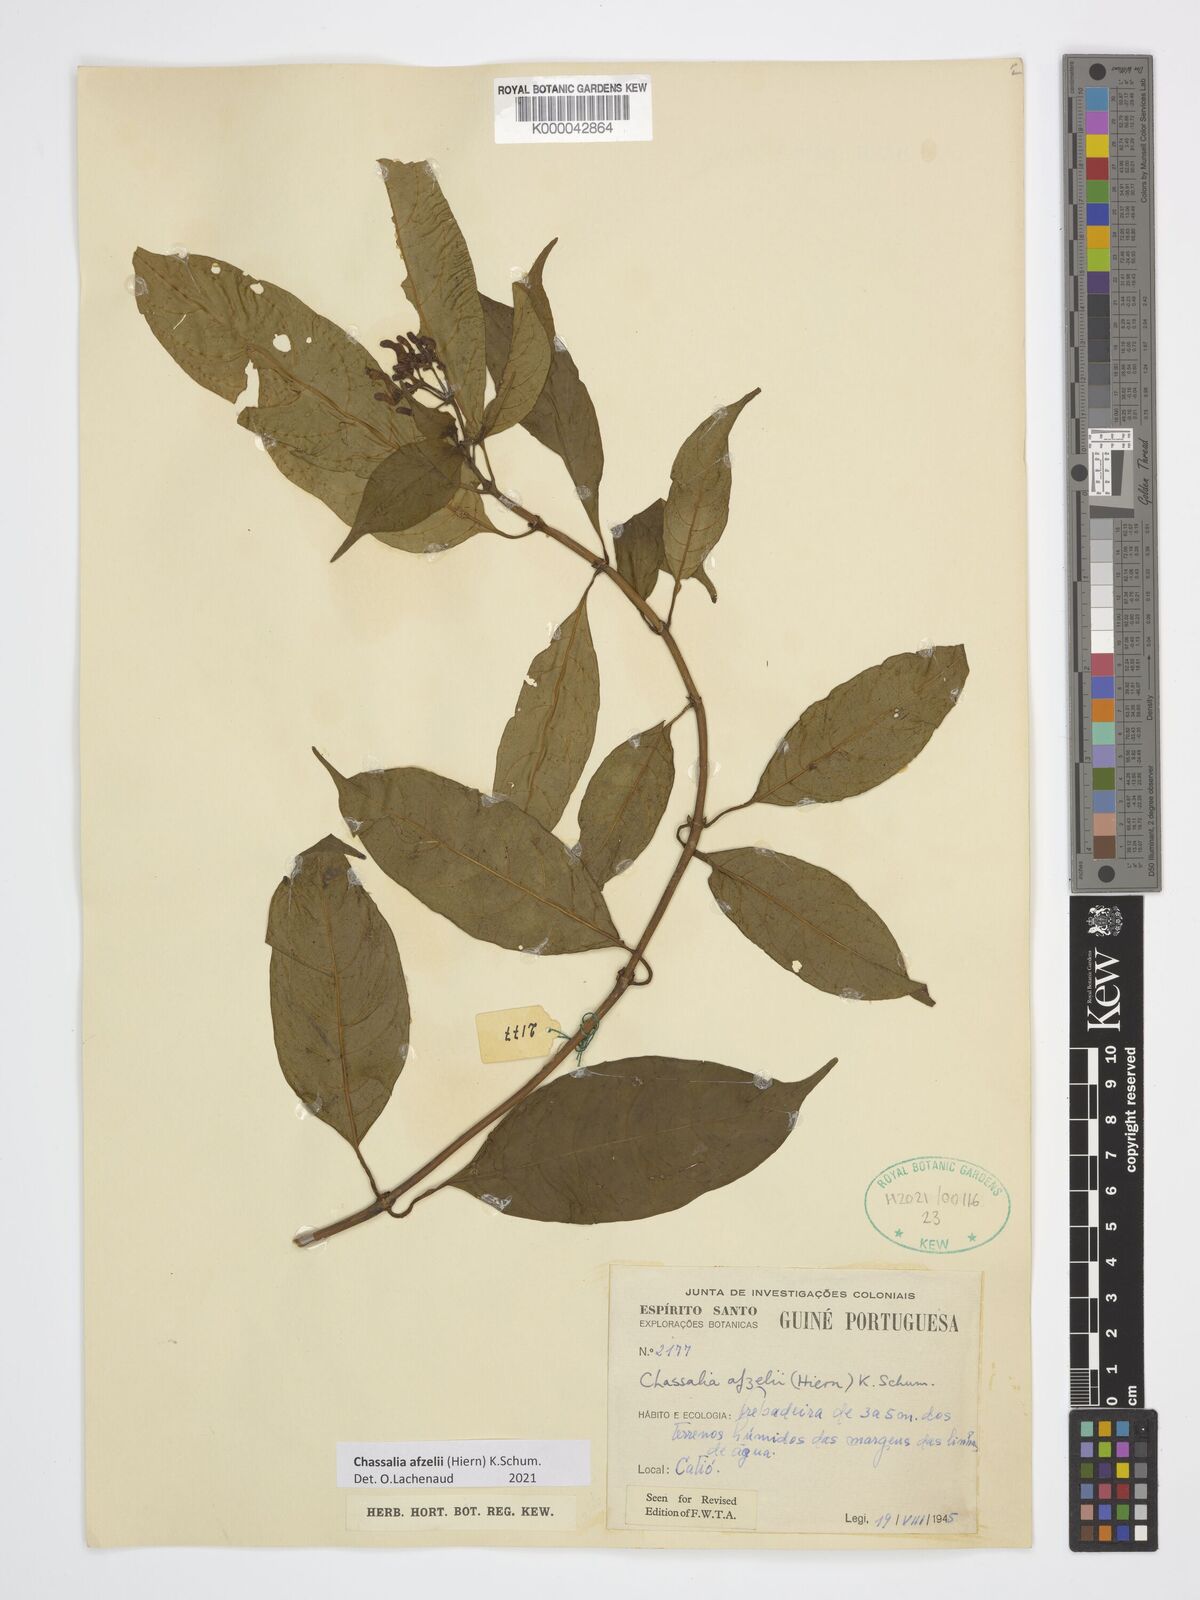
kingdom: Plantae
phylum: Tracheophyta
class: Magnoliopsida
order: Gentianales
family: Rubiaceae
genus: Chassalia
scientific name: Chassalia afzelii
